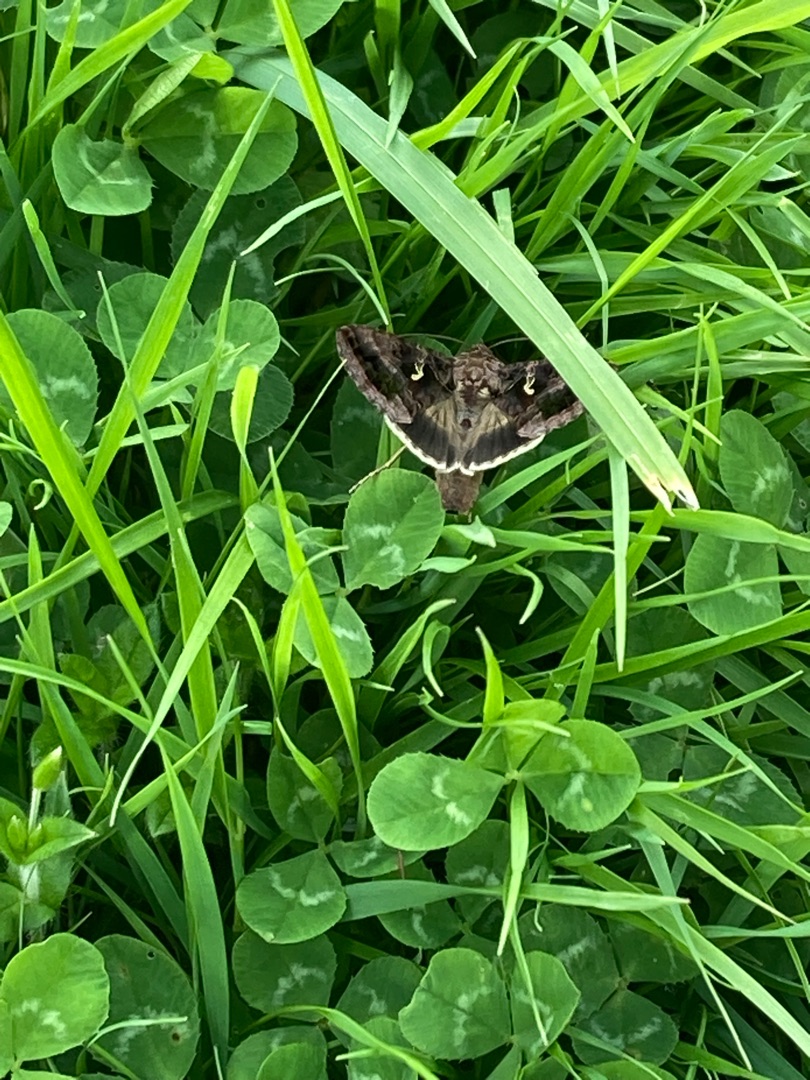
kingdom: Animalia
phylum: Arthropoda
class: Insecta
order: Lepidoptera
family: Noctuidae
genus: Autographa
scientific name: Autographa gamma
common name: Gammaugle
